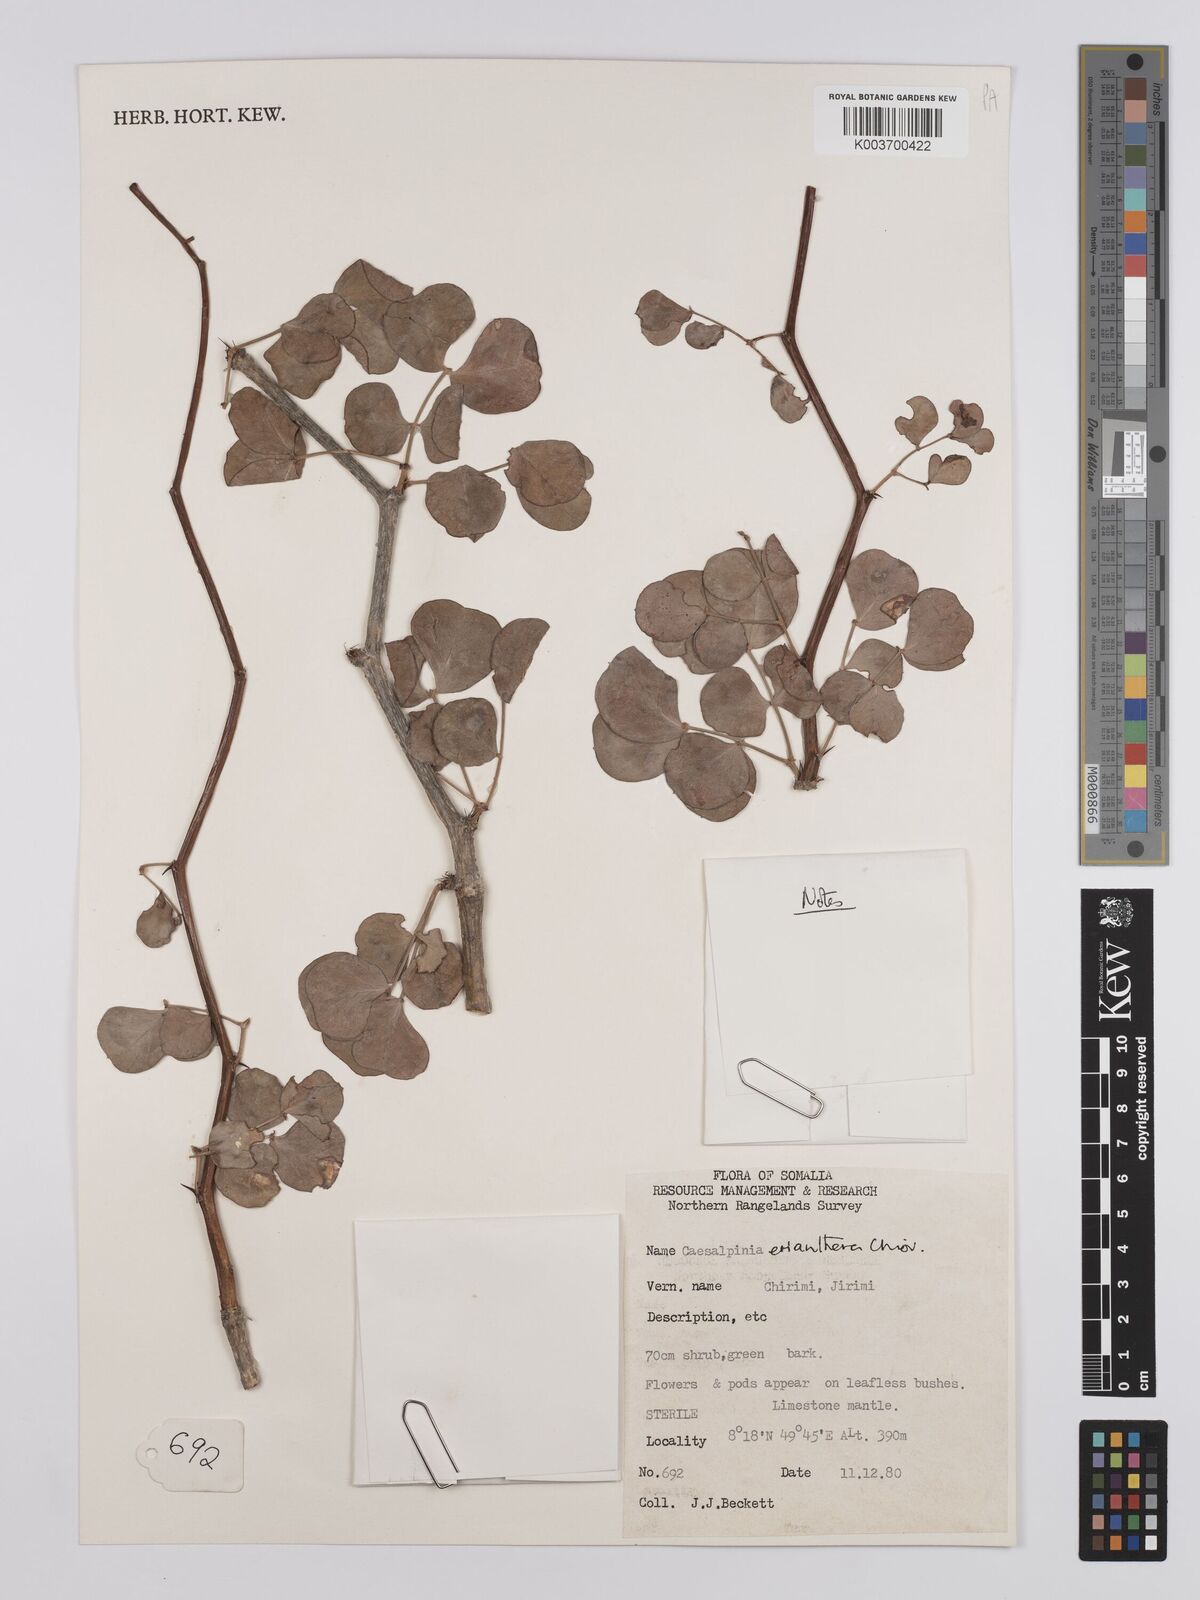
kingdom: Plantae
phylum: Tracheophyta
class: Magnoliopsida
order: Fabales
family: Fabaceae
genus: Denisophytum
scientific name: Denisophytum eriantherum
